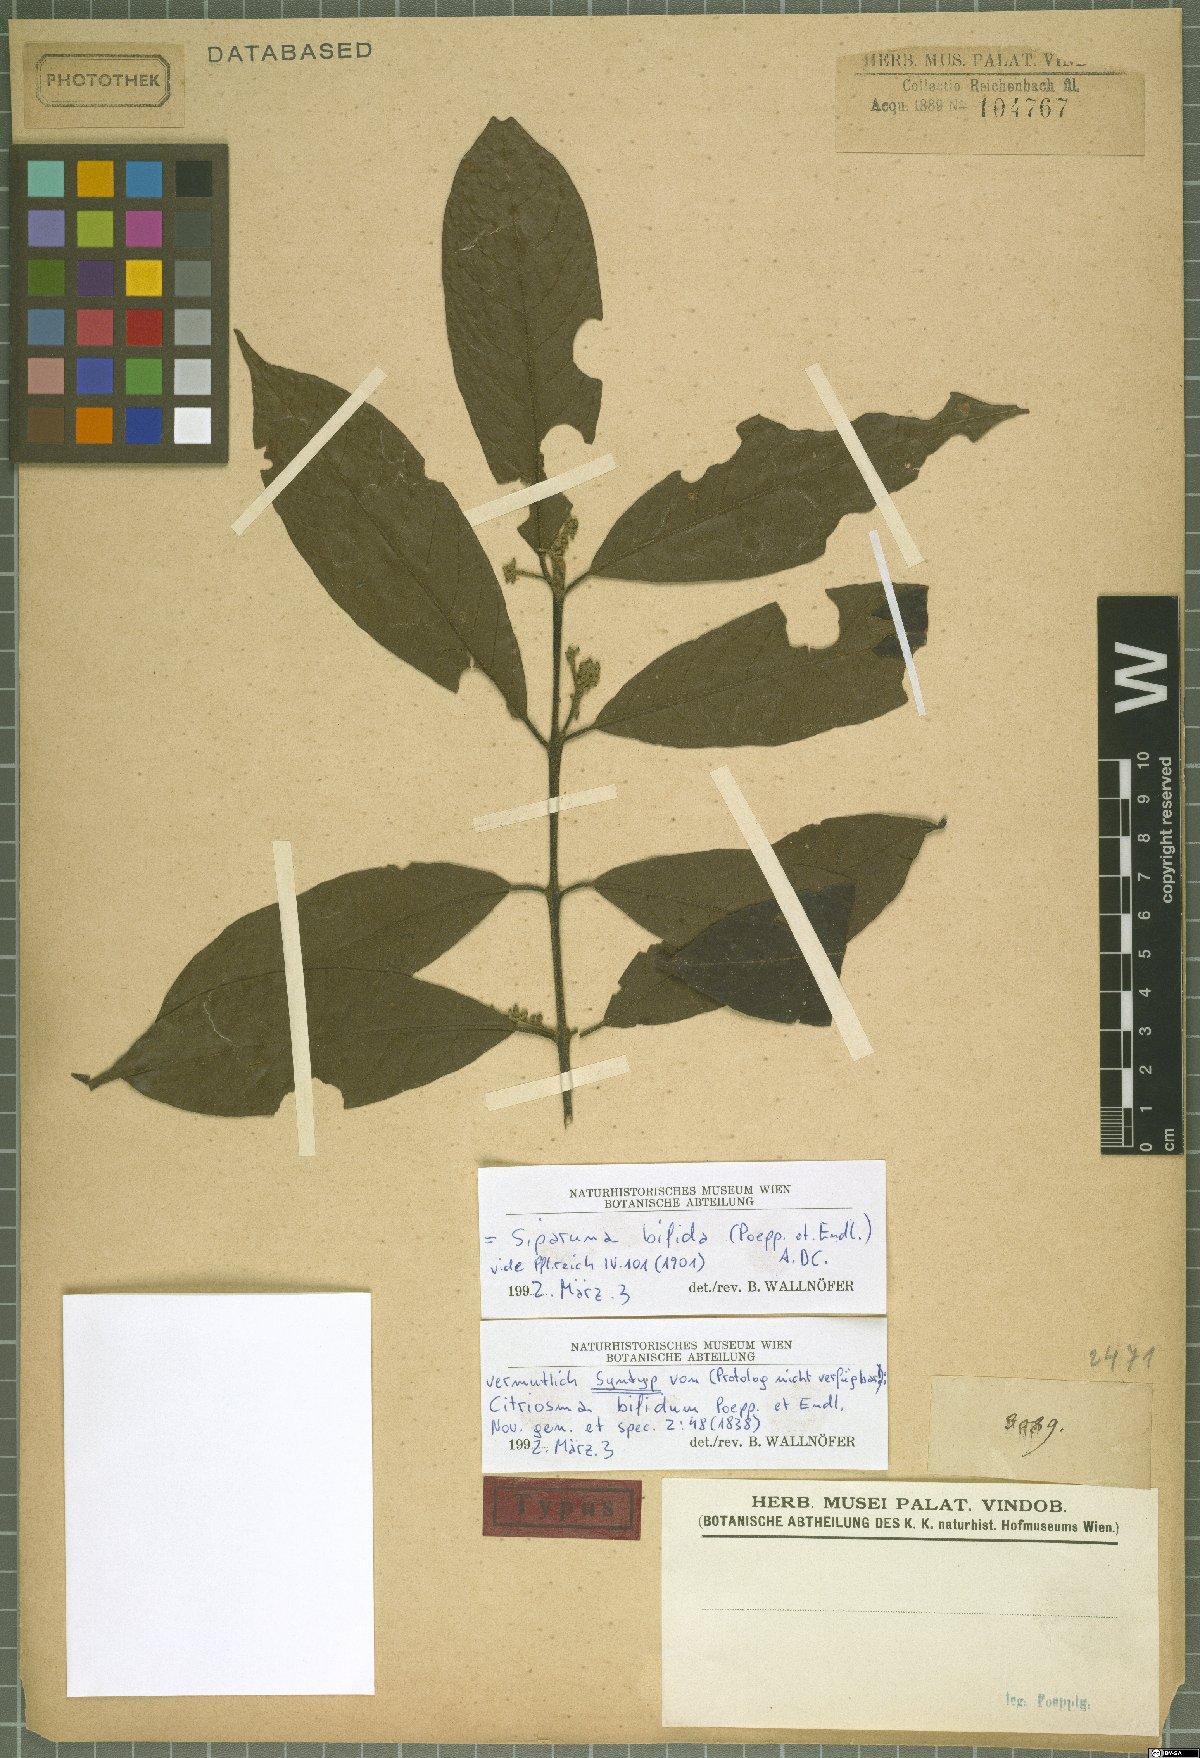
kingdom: Plantae
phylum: Tracheophyta
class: Magnoliopsida
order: Laurales
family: Siparunaceae
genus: Siparuna
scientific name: Siparuna bifida
